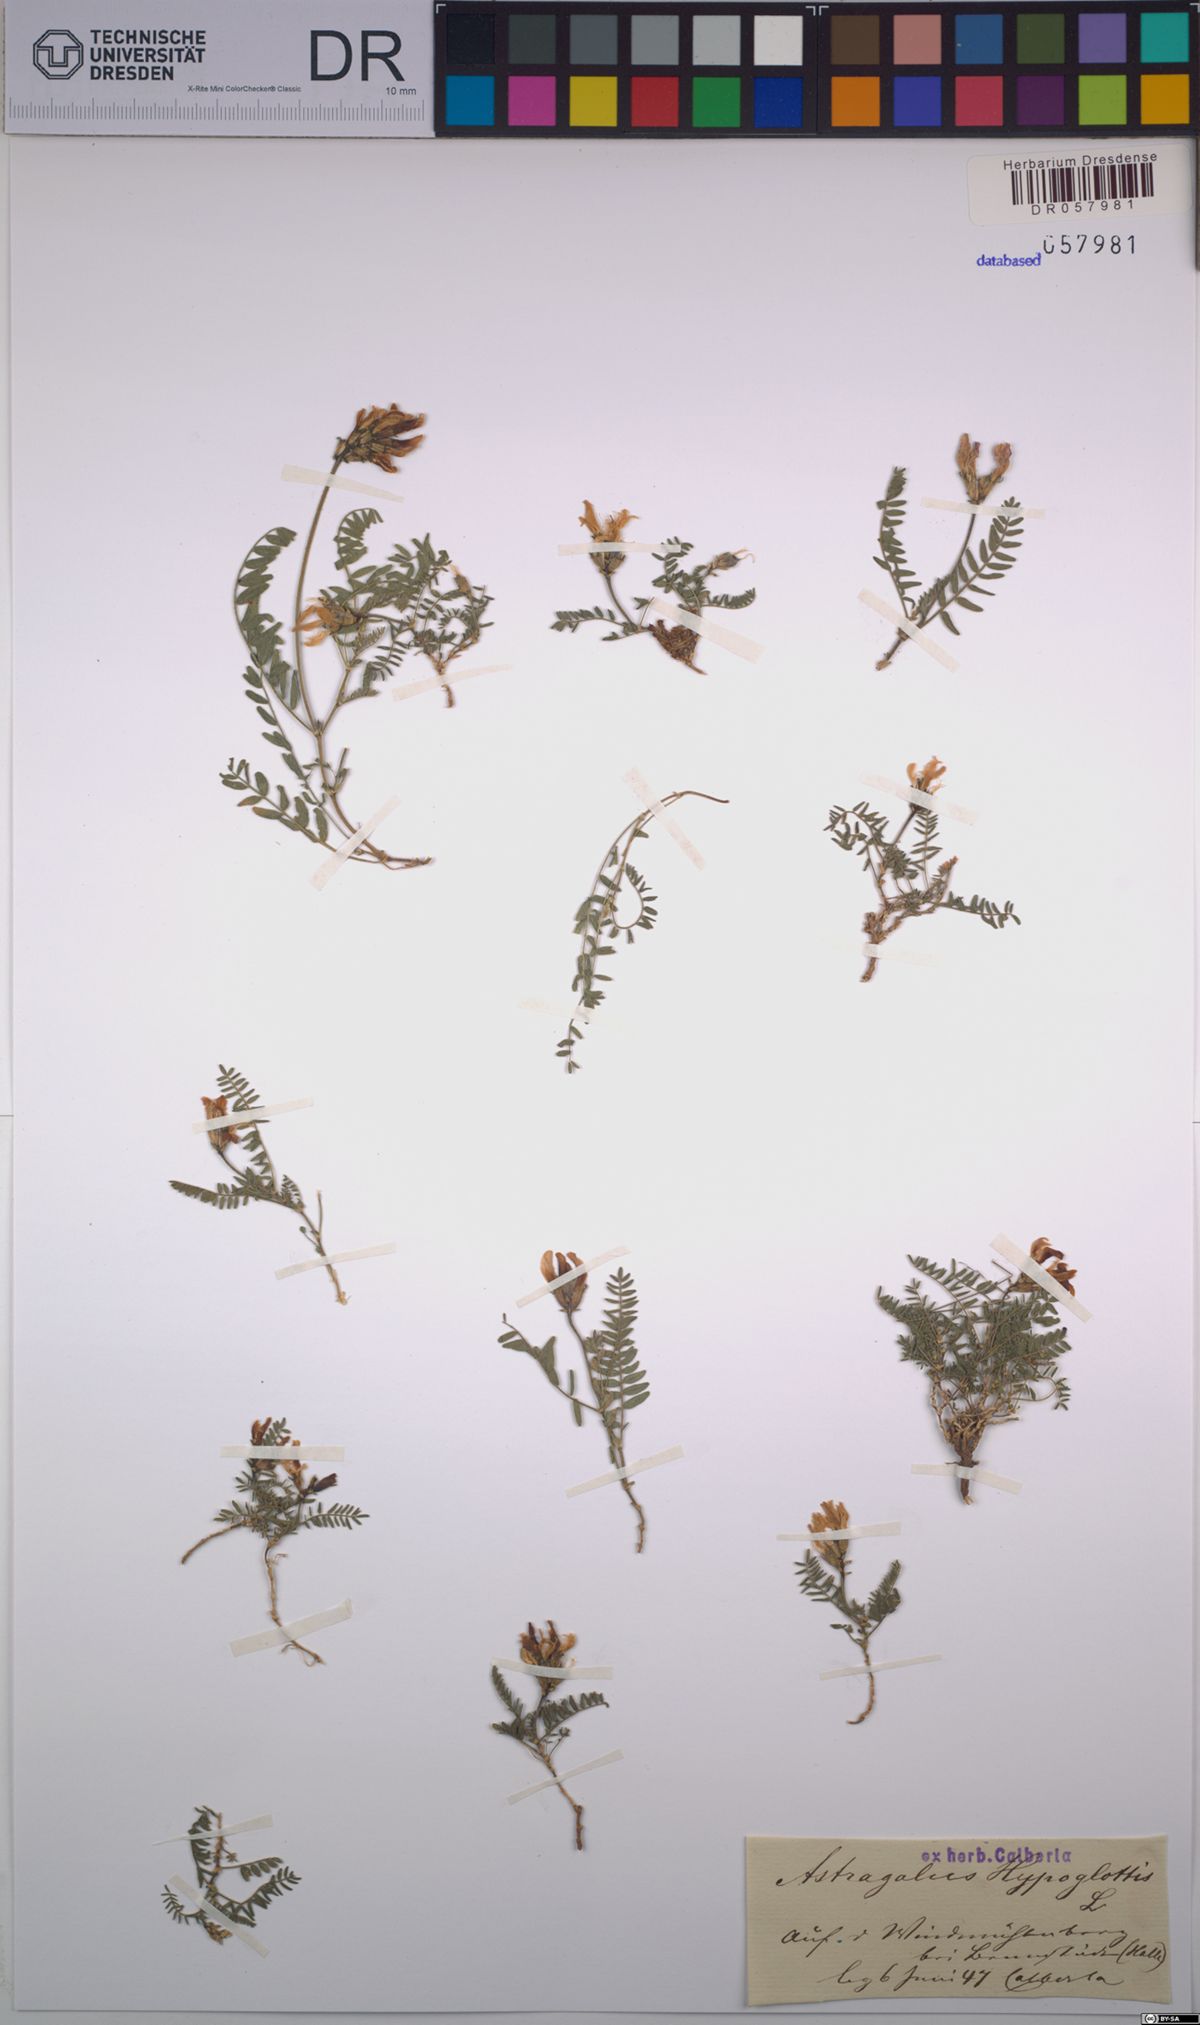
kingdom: Plantae
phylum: Tracheophyta
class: Magnoliopsida
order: Fabales
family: Fabaceae
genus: Astragalus
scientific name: Astragalus hypoglottis
